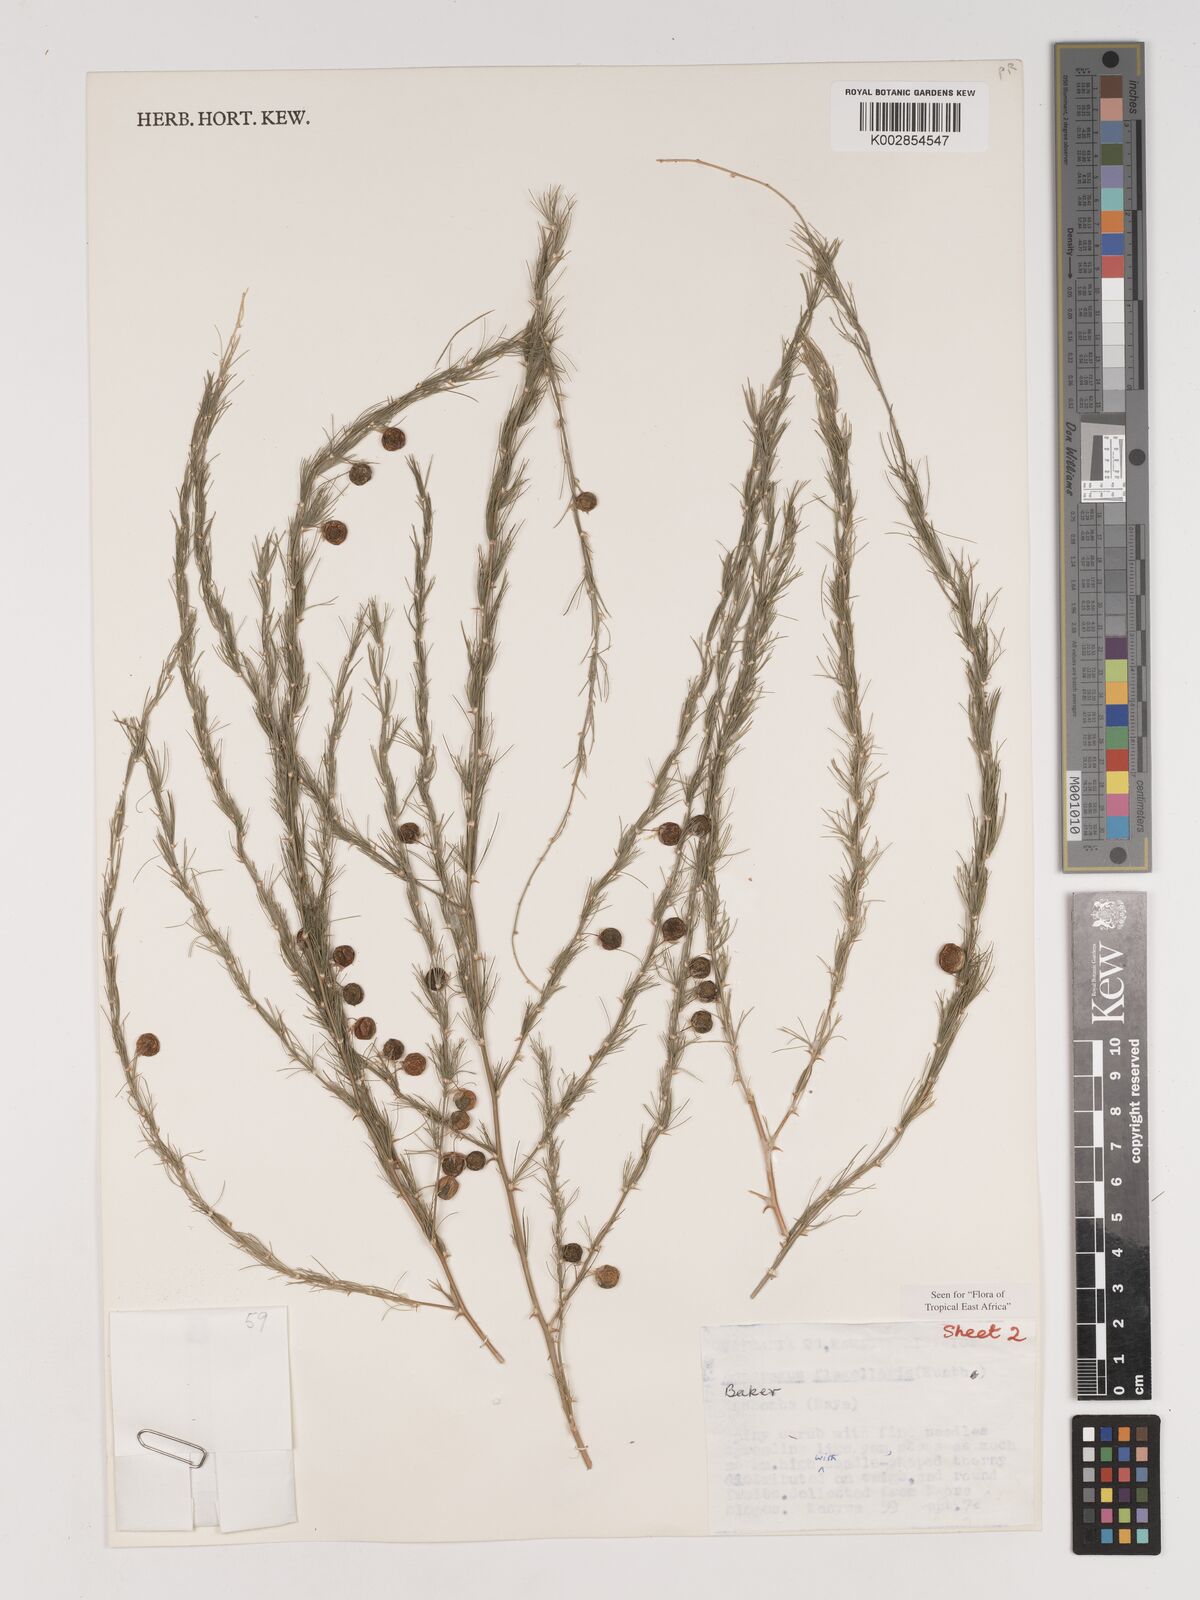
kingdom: Plantae
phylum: Tracheophyta
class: Liliopsida
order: Asparagales
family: Asparagaceae
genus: Asparagus
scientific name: Asparagus flagellaris
